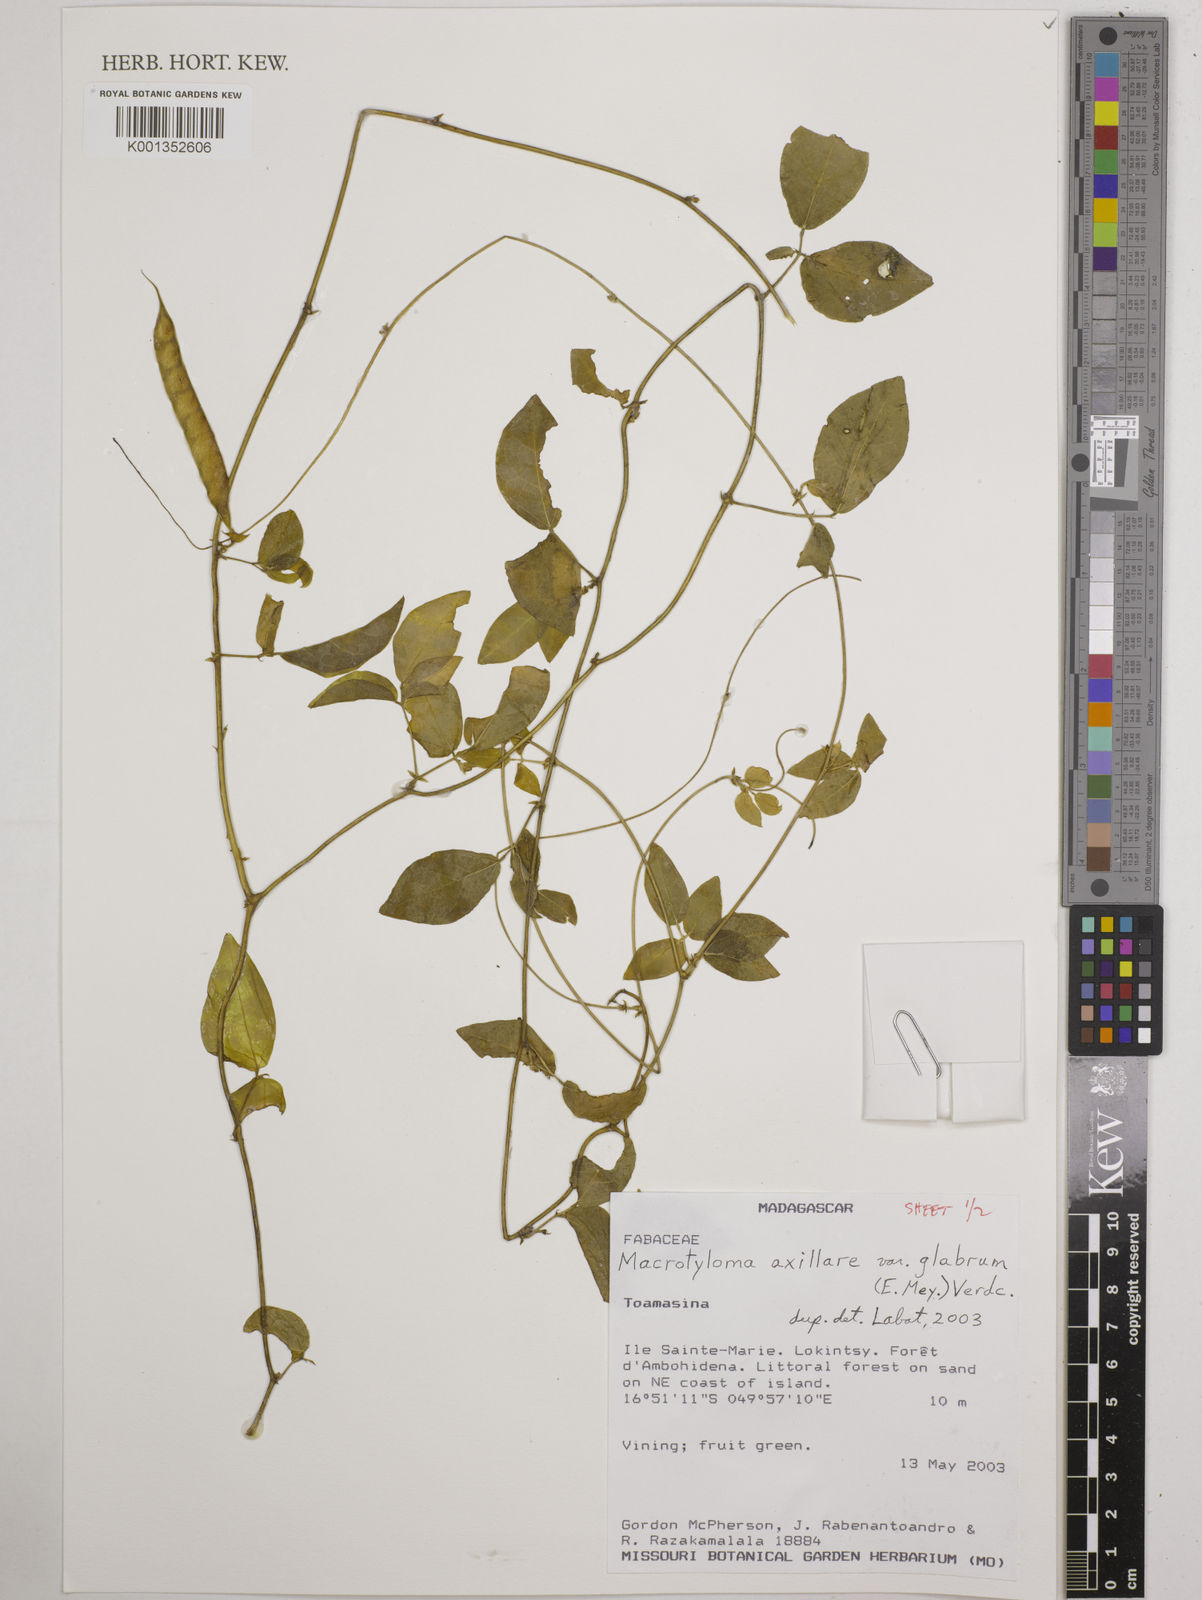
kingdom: Plantae
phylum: Tracheophyta
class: Magnoliopsida
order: Fabales
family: Fabaceae
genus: Macrotyloma
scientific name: Macrotyloma
